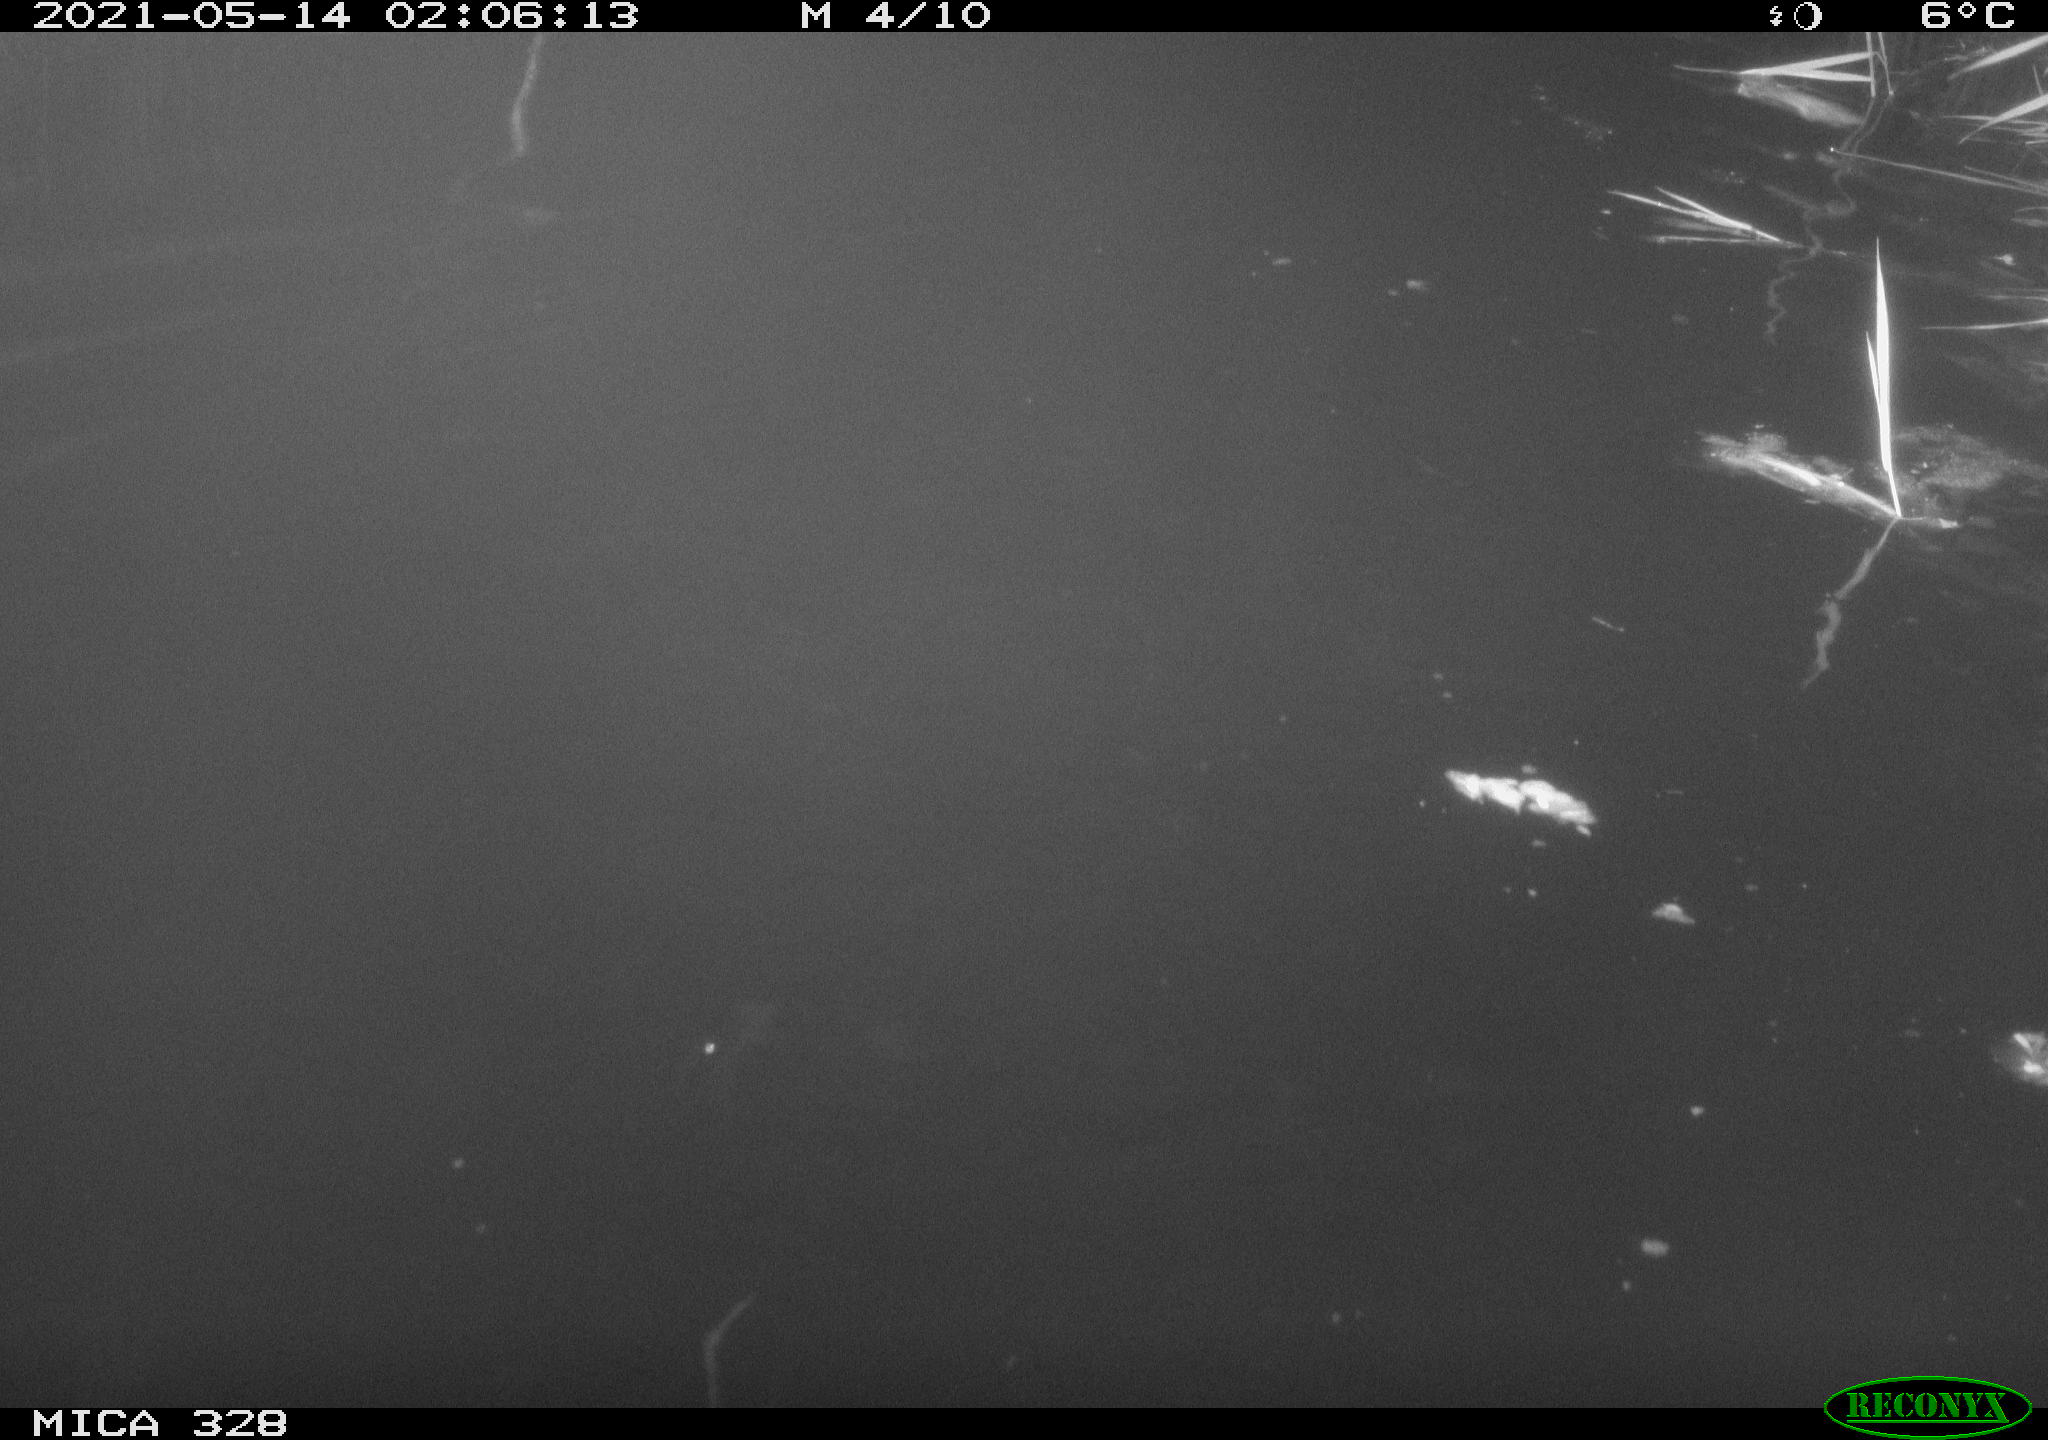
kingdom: Animalia
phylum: Chordata
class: Mammalia
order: Rodentia
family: Cricetidae
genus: Ondatra
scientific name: Ondatra zibethicus
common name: Muskrat
